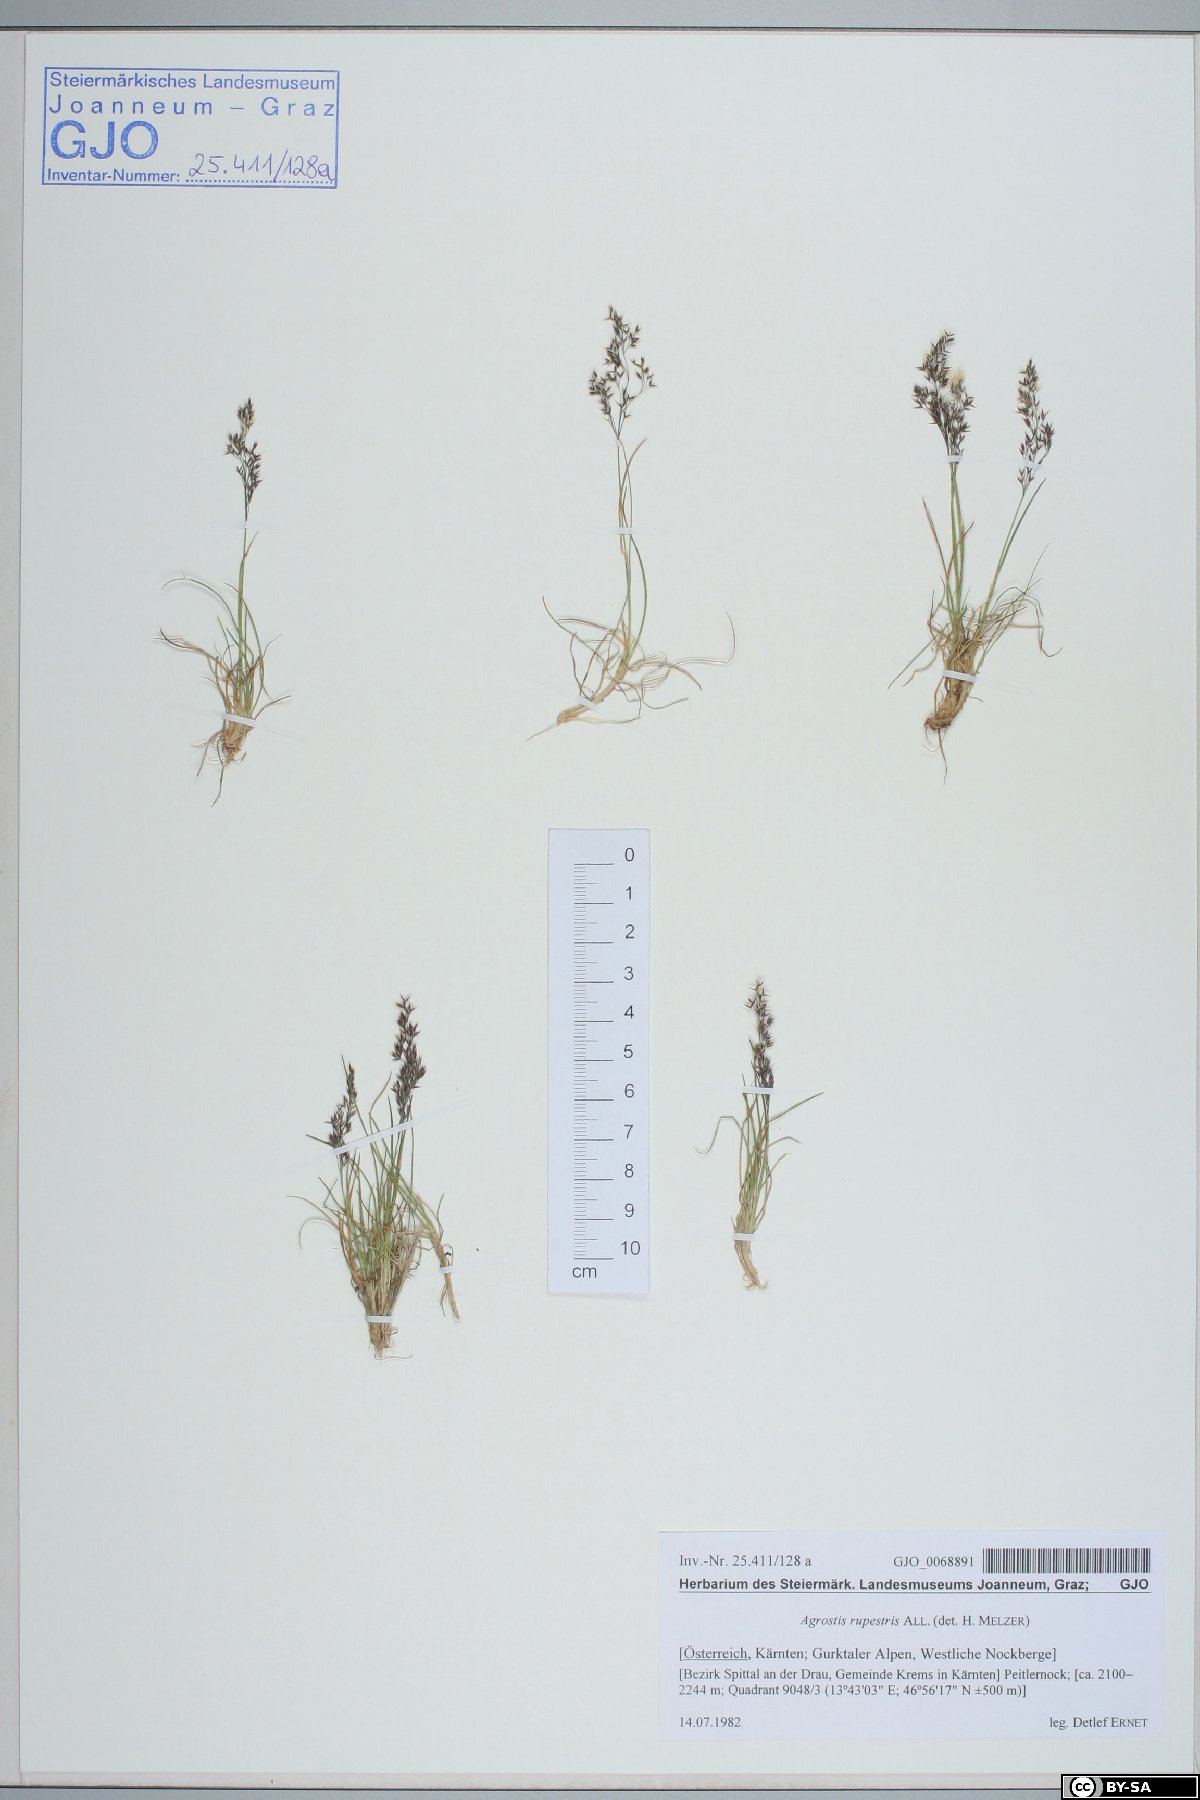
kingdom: Plantae
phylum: Tracheophyta
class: Liliopsida
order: Poales
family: Poaceae
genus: Agrostis
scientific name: Agrostis rupestris
